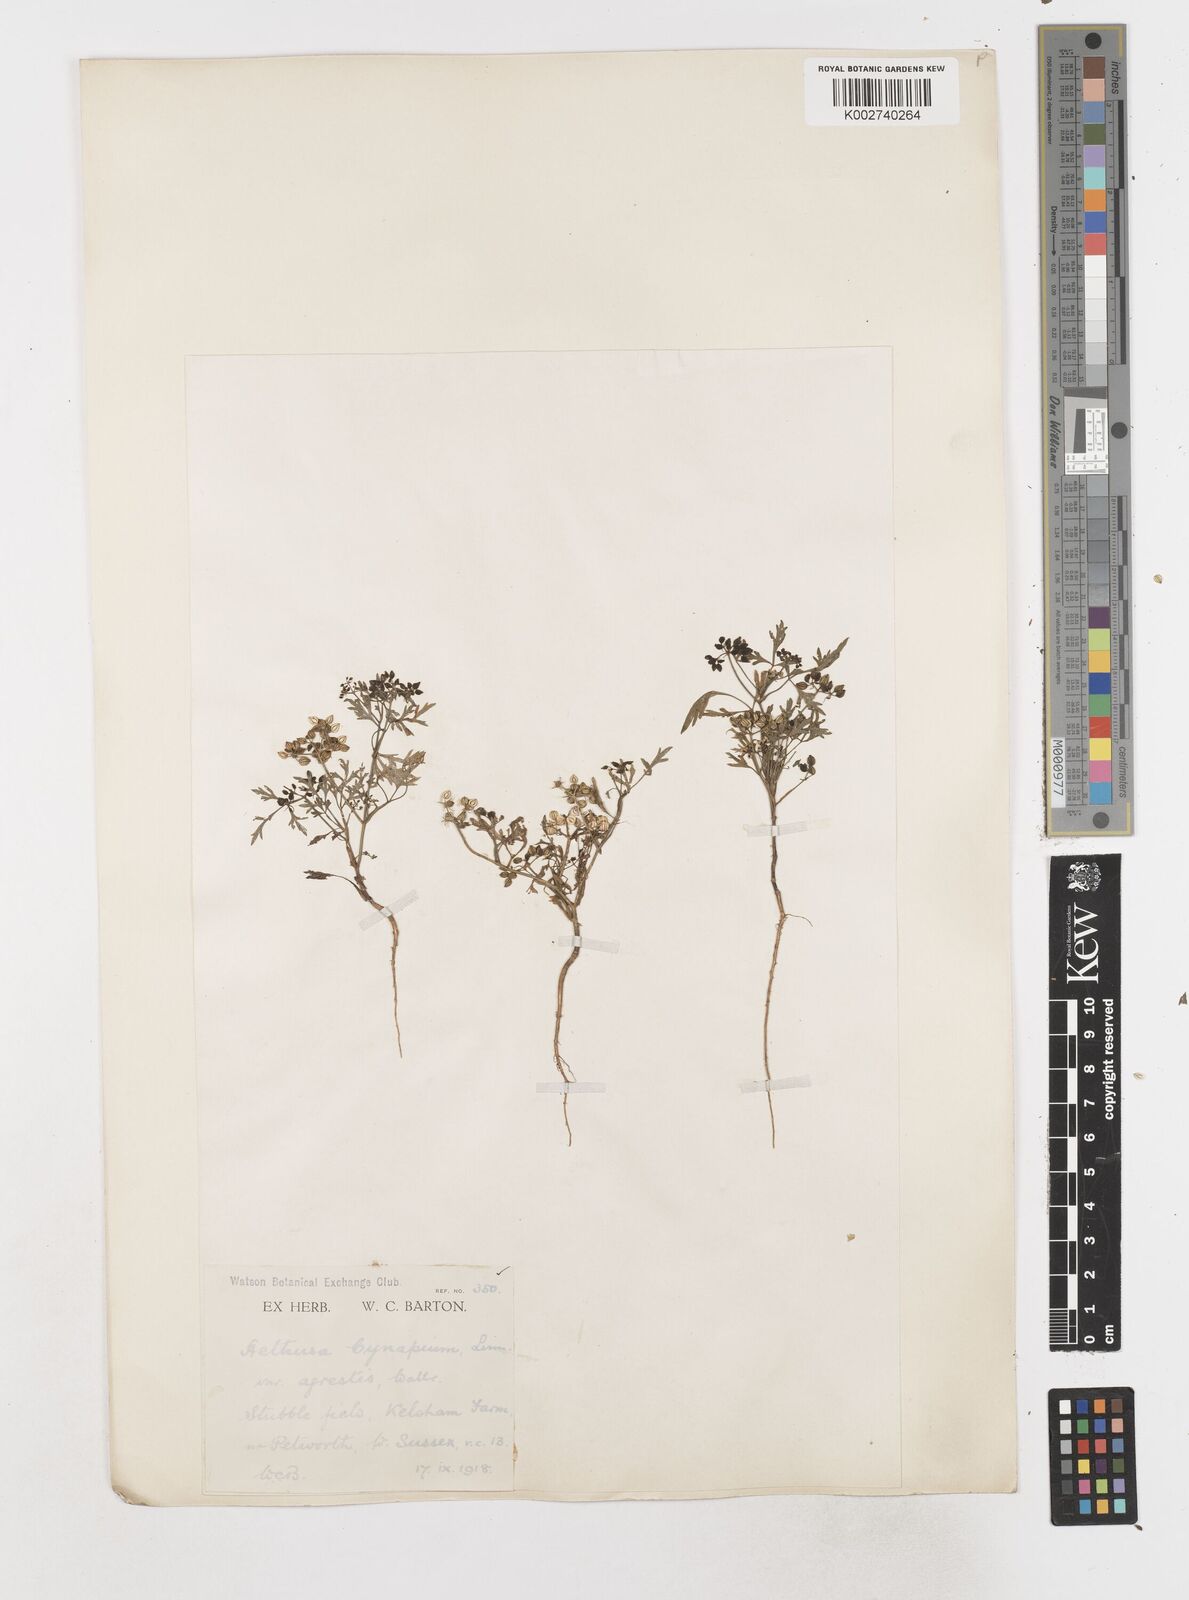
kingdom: Plantae
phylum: Tracheophyta
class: Magnoliopsida
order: Apiales
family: Apiaceae
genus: Aethusa
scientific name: Aethusa cynapium
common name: Fool's parsley
